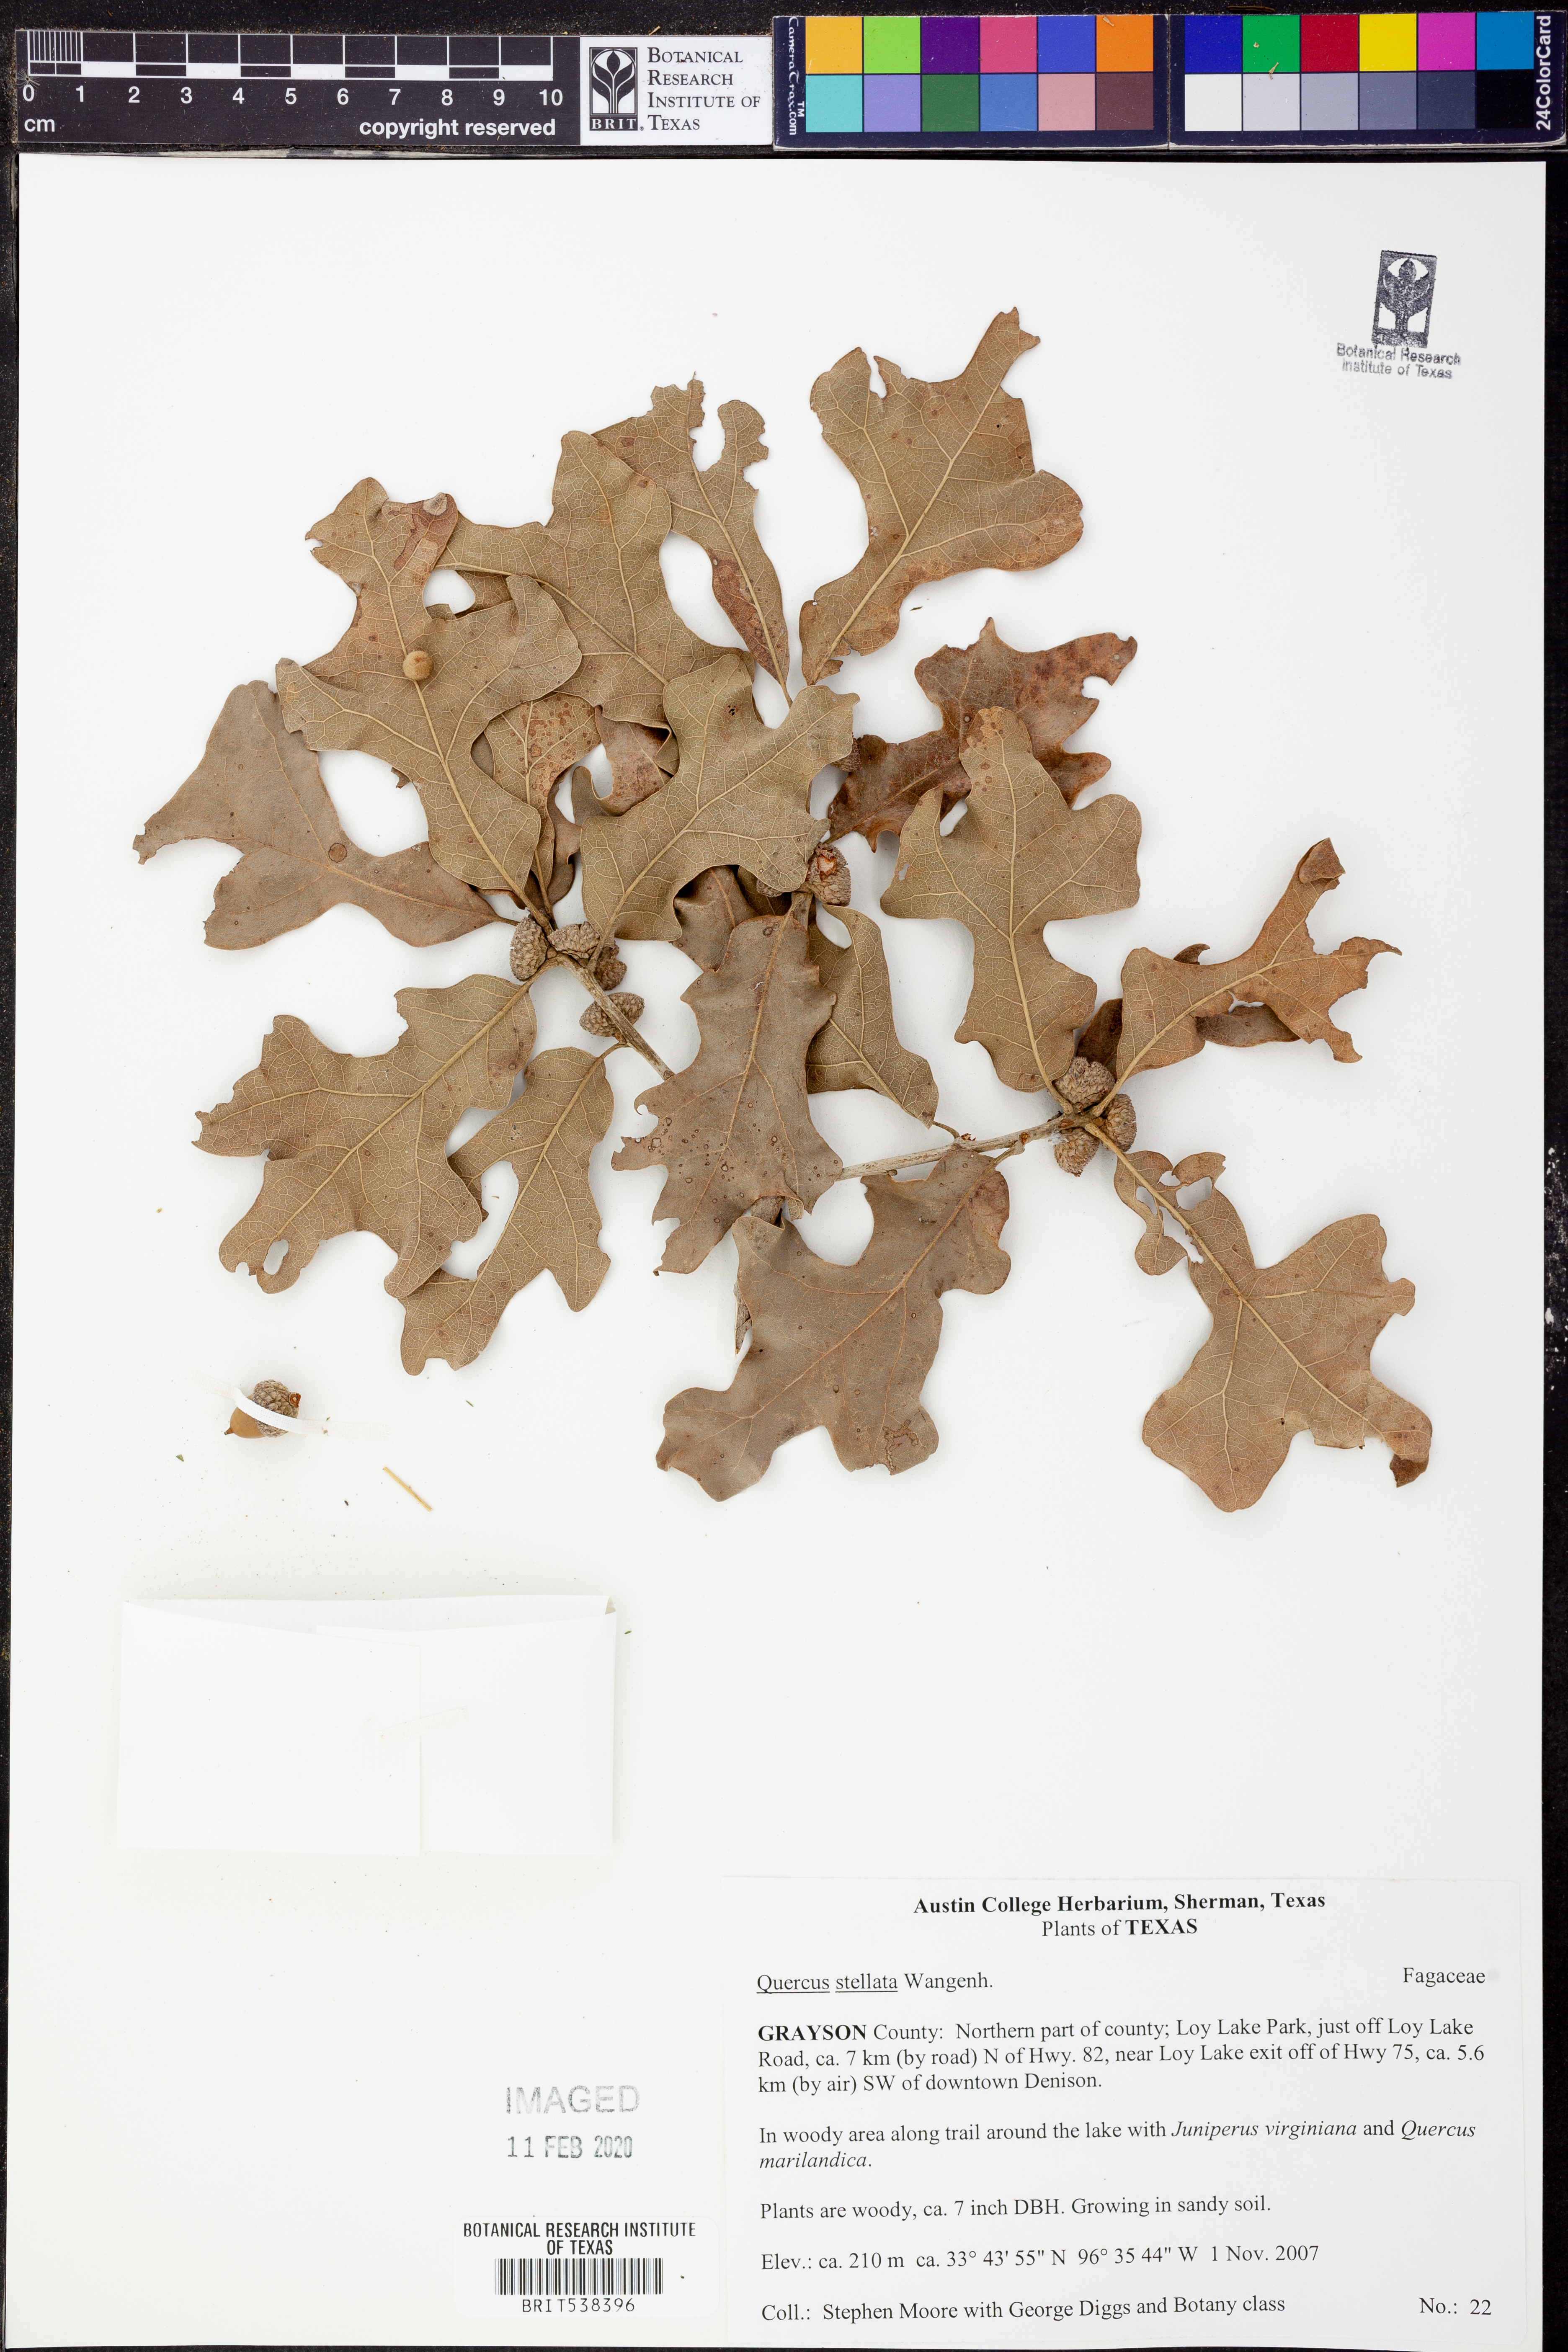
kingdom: Plantae
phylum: Tracheophyta
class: Magnoliopsida
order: Fagales
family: Fagaceae
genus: Quercus
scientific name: Quercus stellata
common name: Post oak
